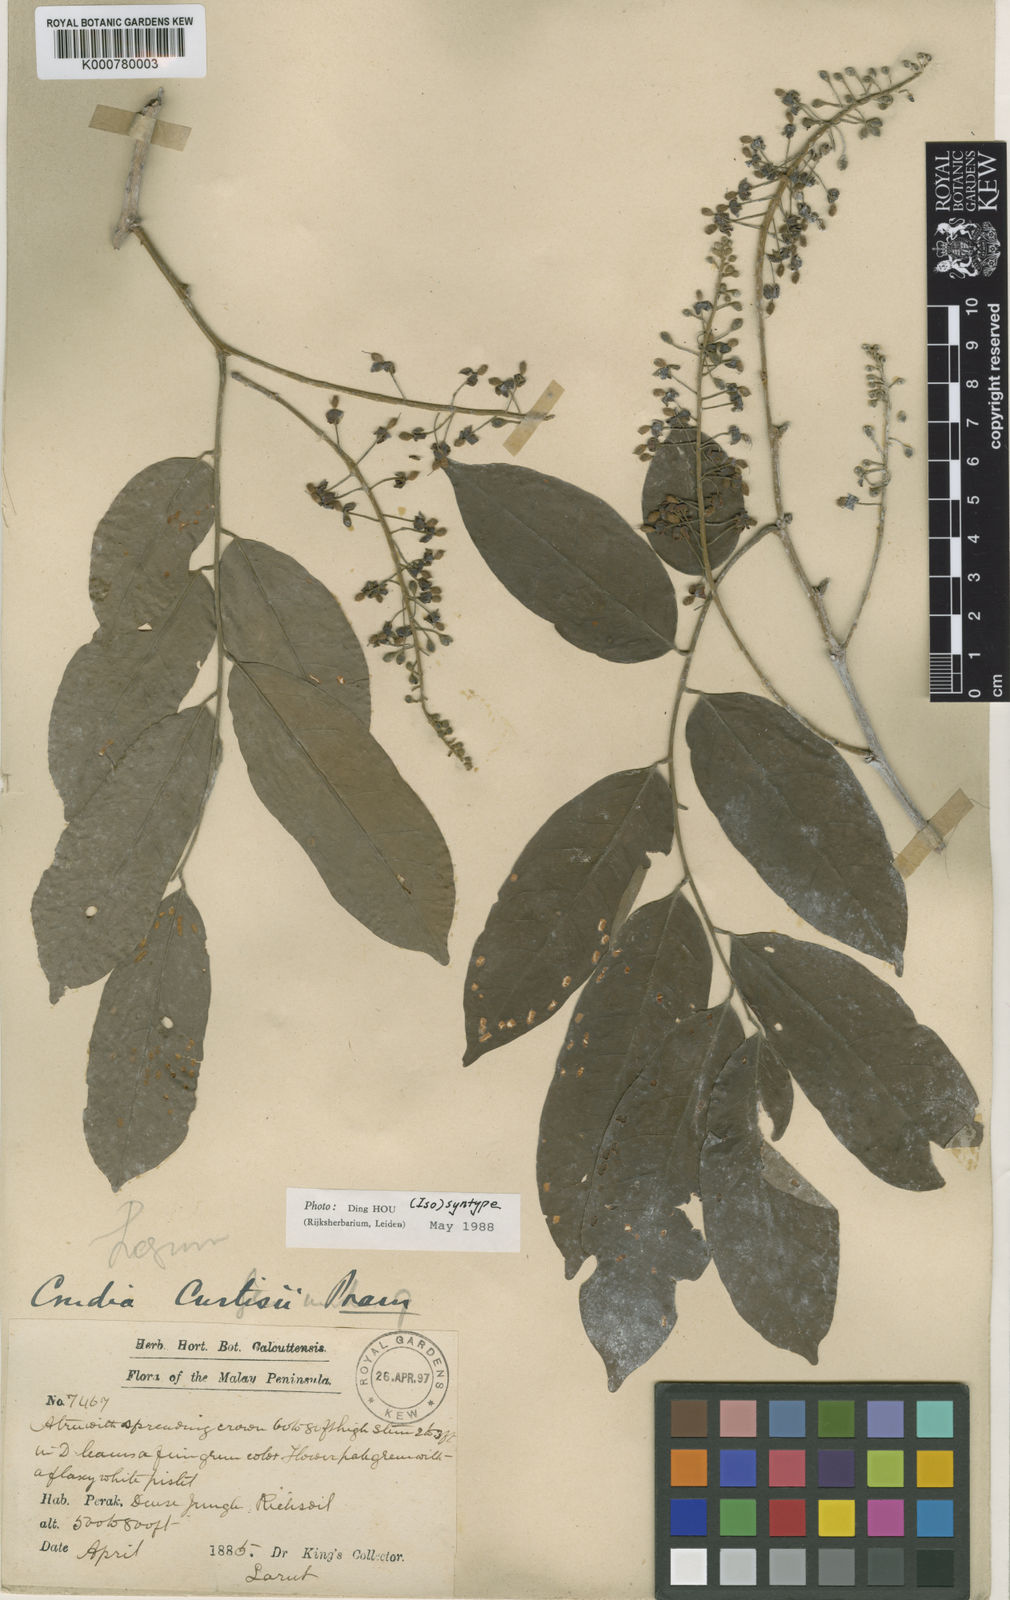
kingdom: Plantae
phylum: Tracheophyta
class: Magnoliopsida
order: Fabales
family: Fabaceae
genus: Crudia
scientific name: Crudia
